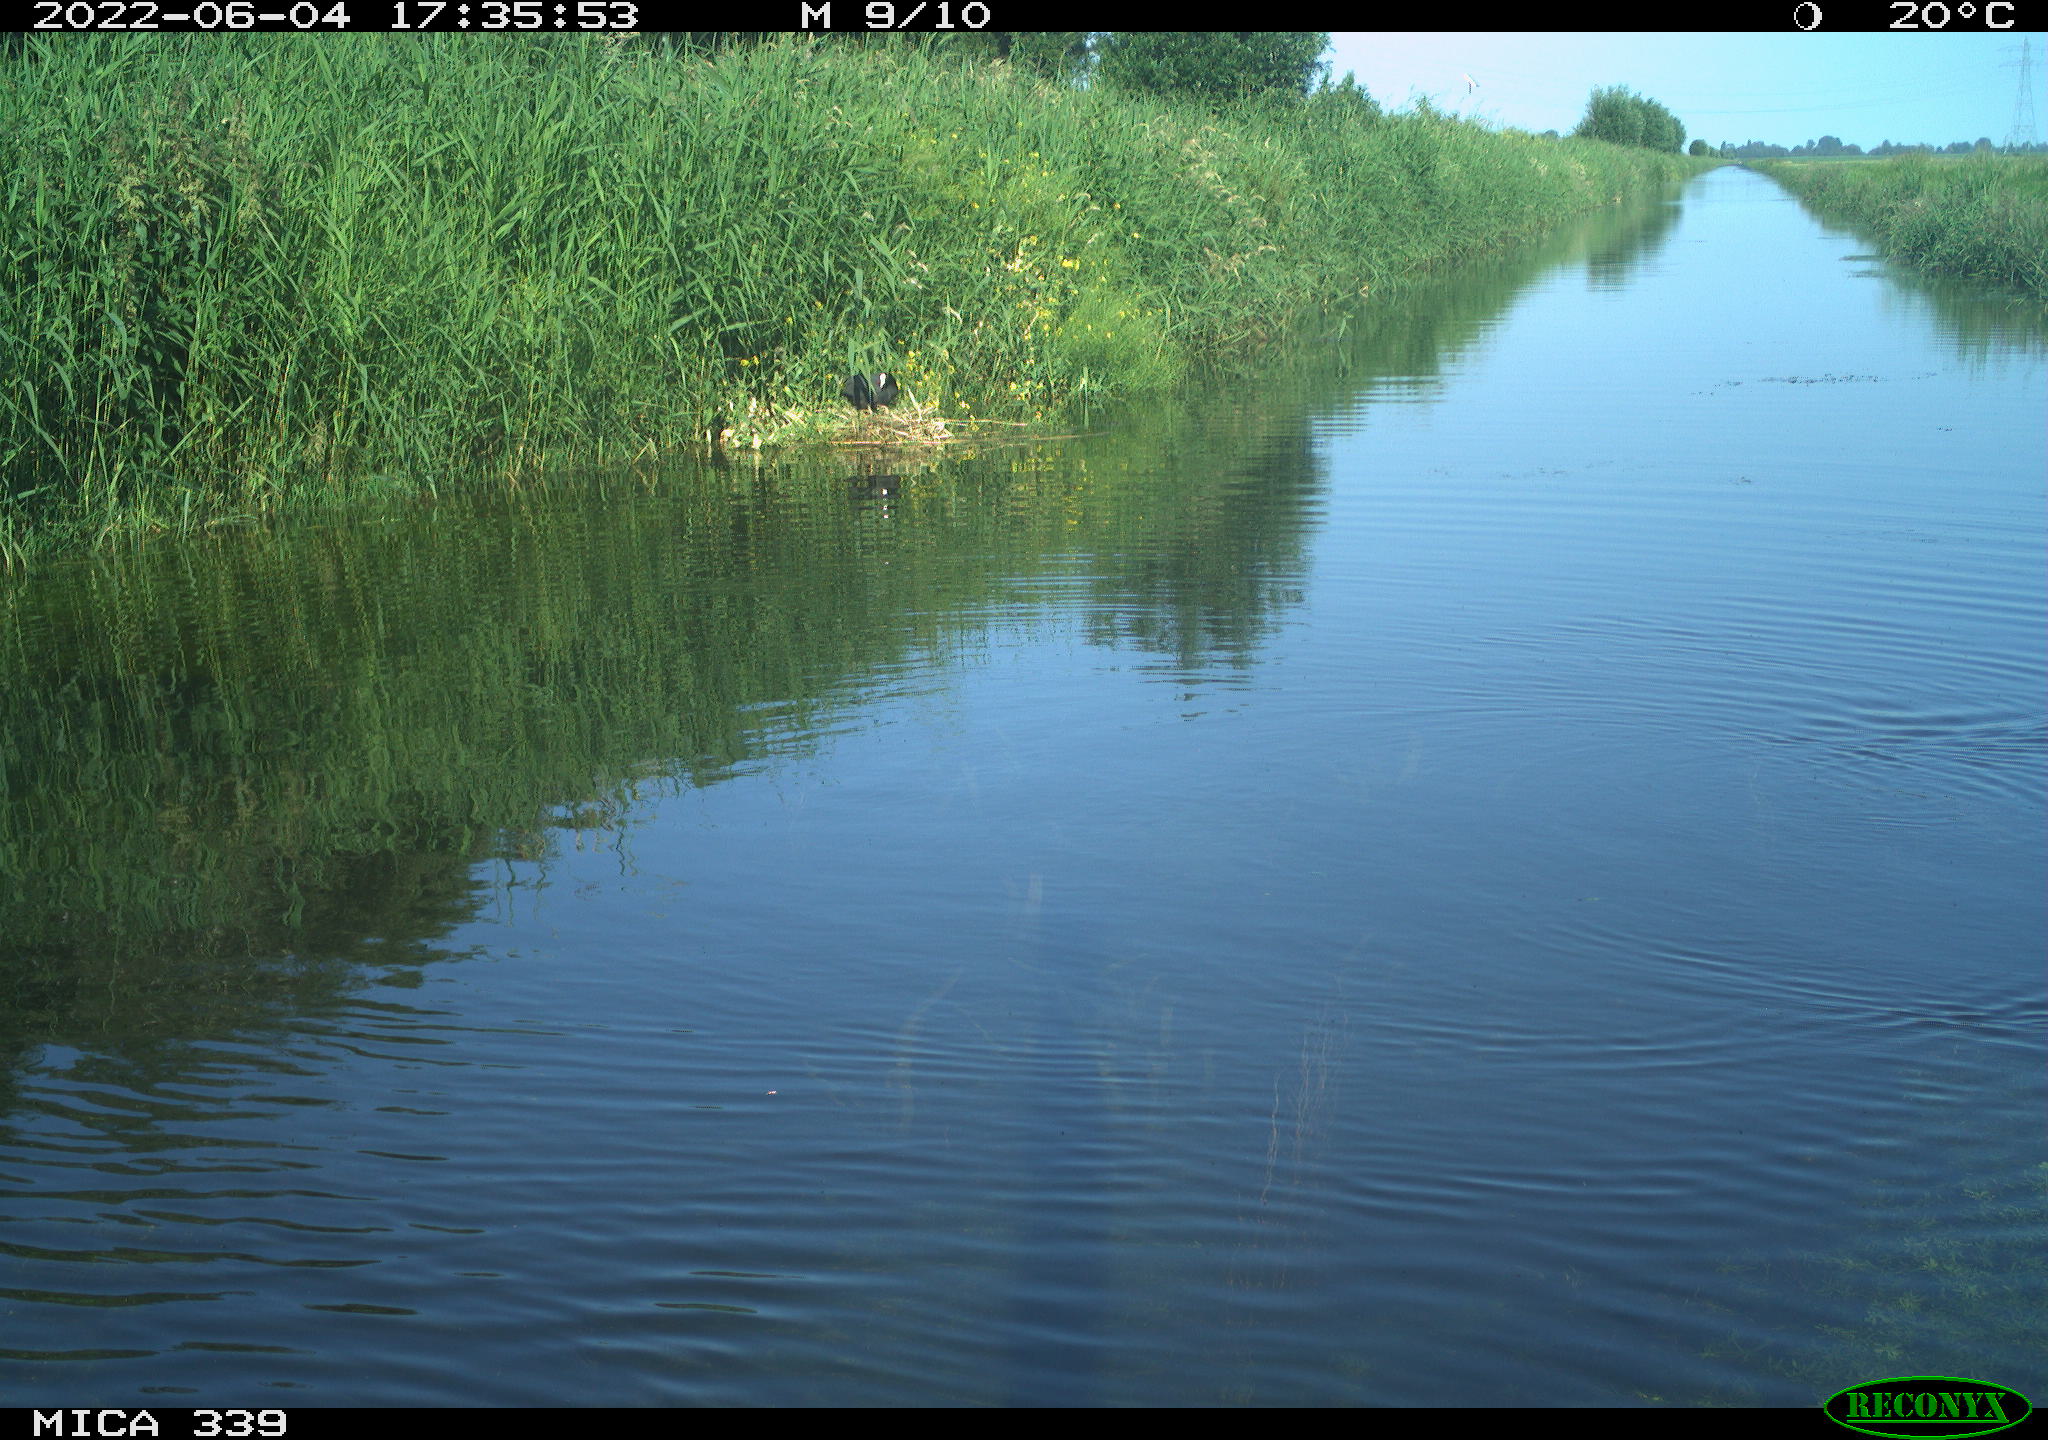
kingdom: Animalia
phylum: Chordata
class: Aves
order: Gruiformes
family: Rallidae
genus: Fulica
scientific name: Fulica atra
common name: Eurasian coot
